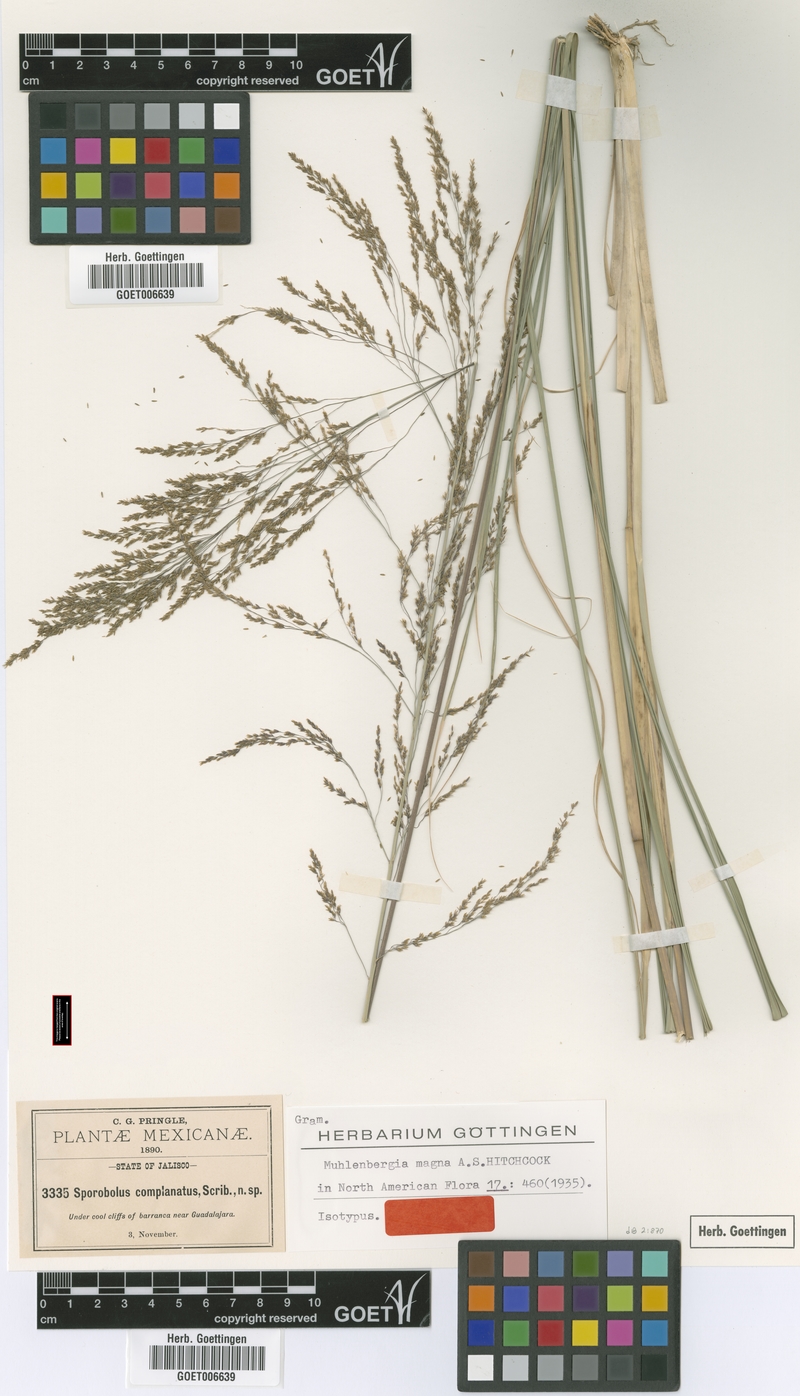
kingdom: Plantae
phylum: Tracheophyta
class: Liliopsida
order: Poales
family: Poaceae
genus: Muhlenbergia
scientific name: Muhlenbergia gigantea
